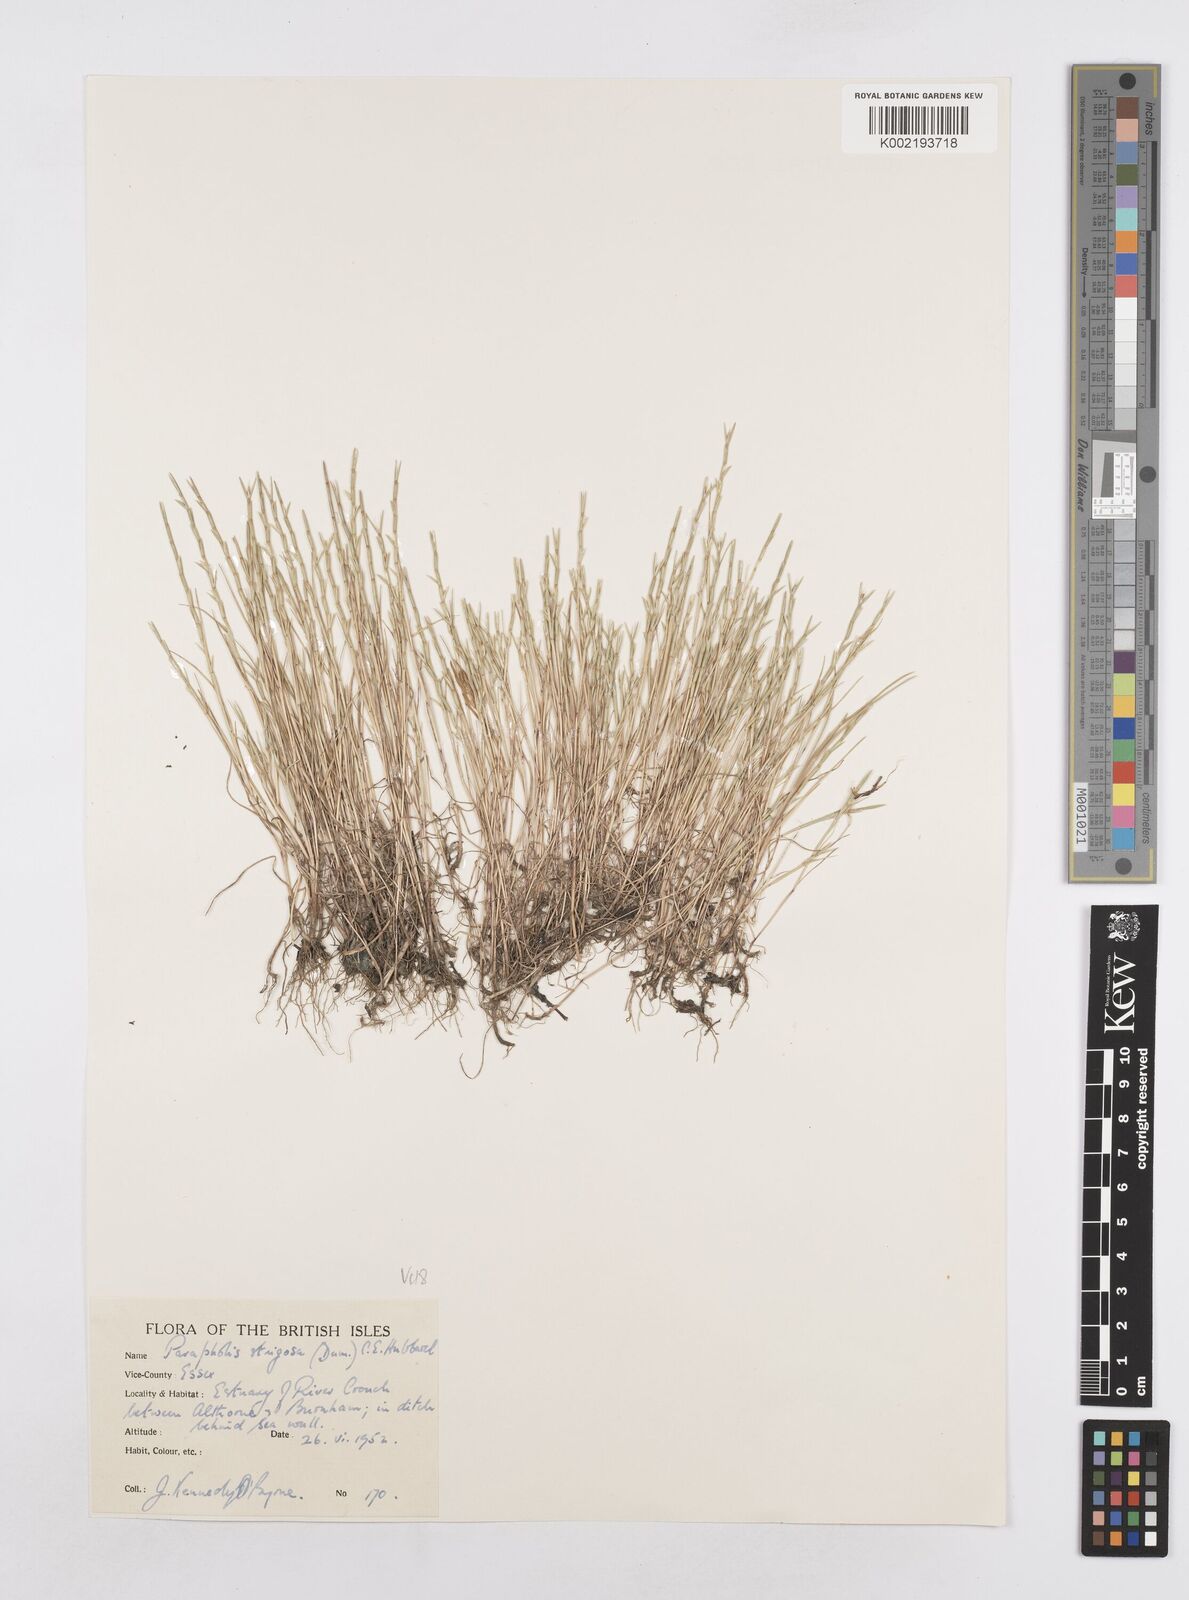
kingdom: Plantae
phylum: Tracheophyta
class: Liliopsida
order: Poales
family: Poaceae
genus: Parapholis
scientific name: Parapholis strigosa
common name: Hard-grass
